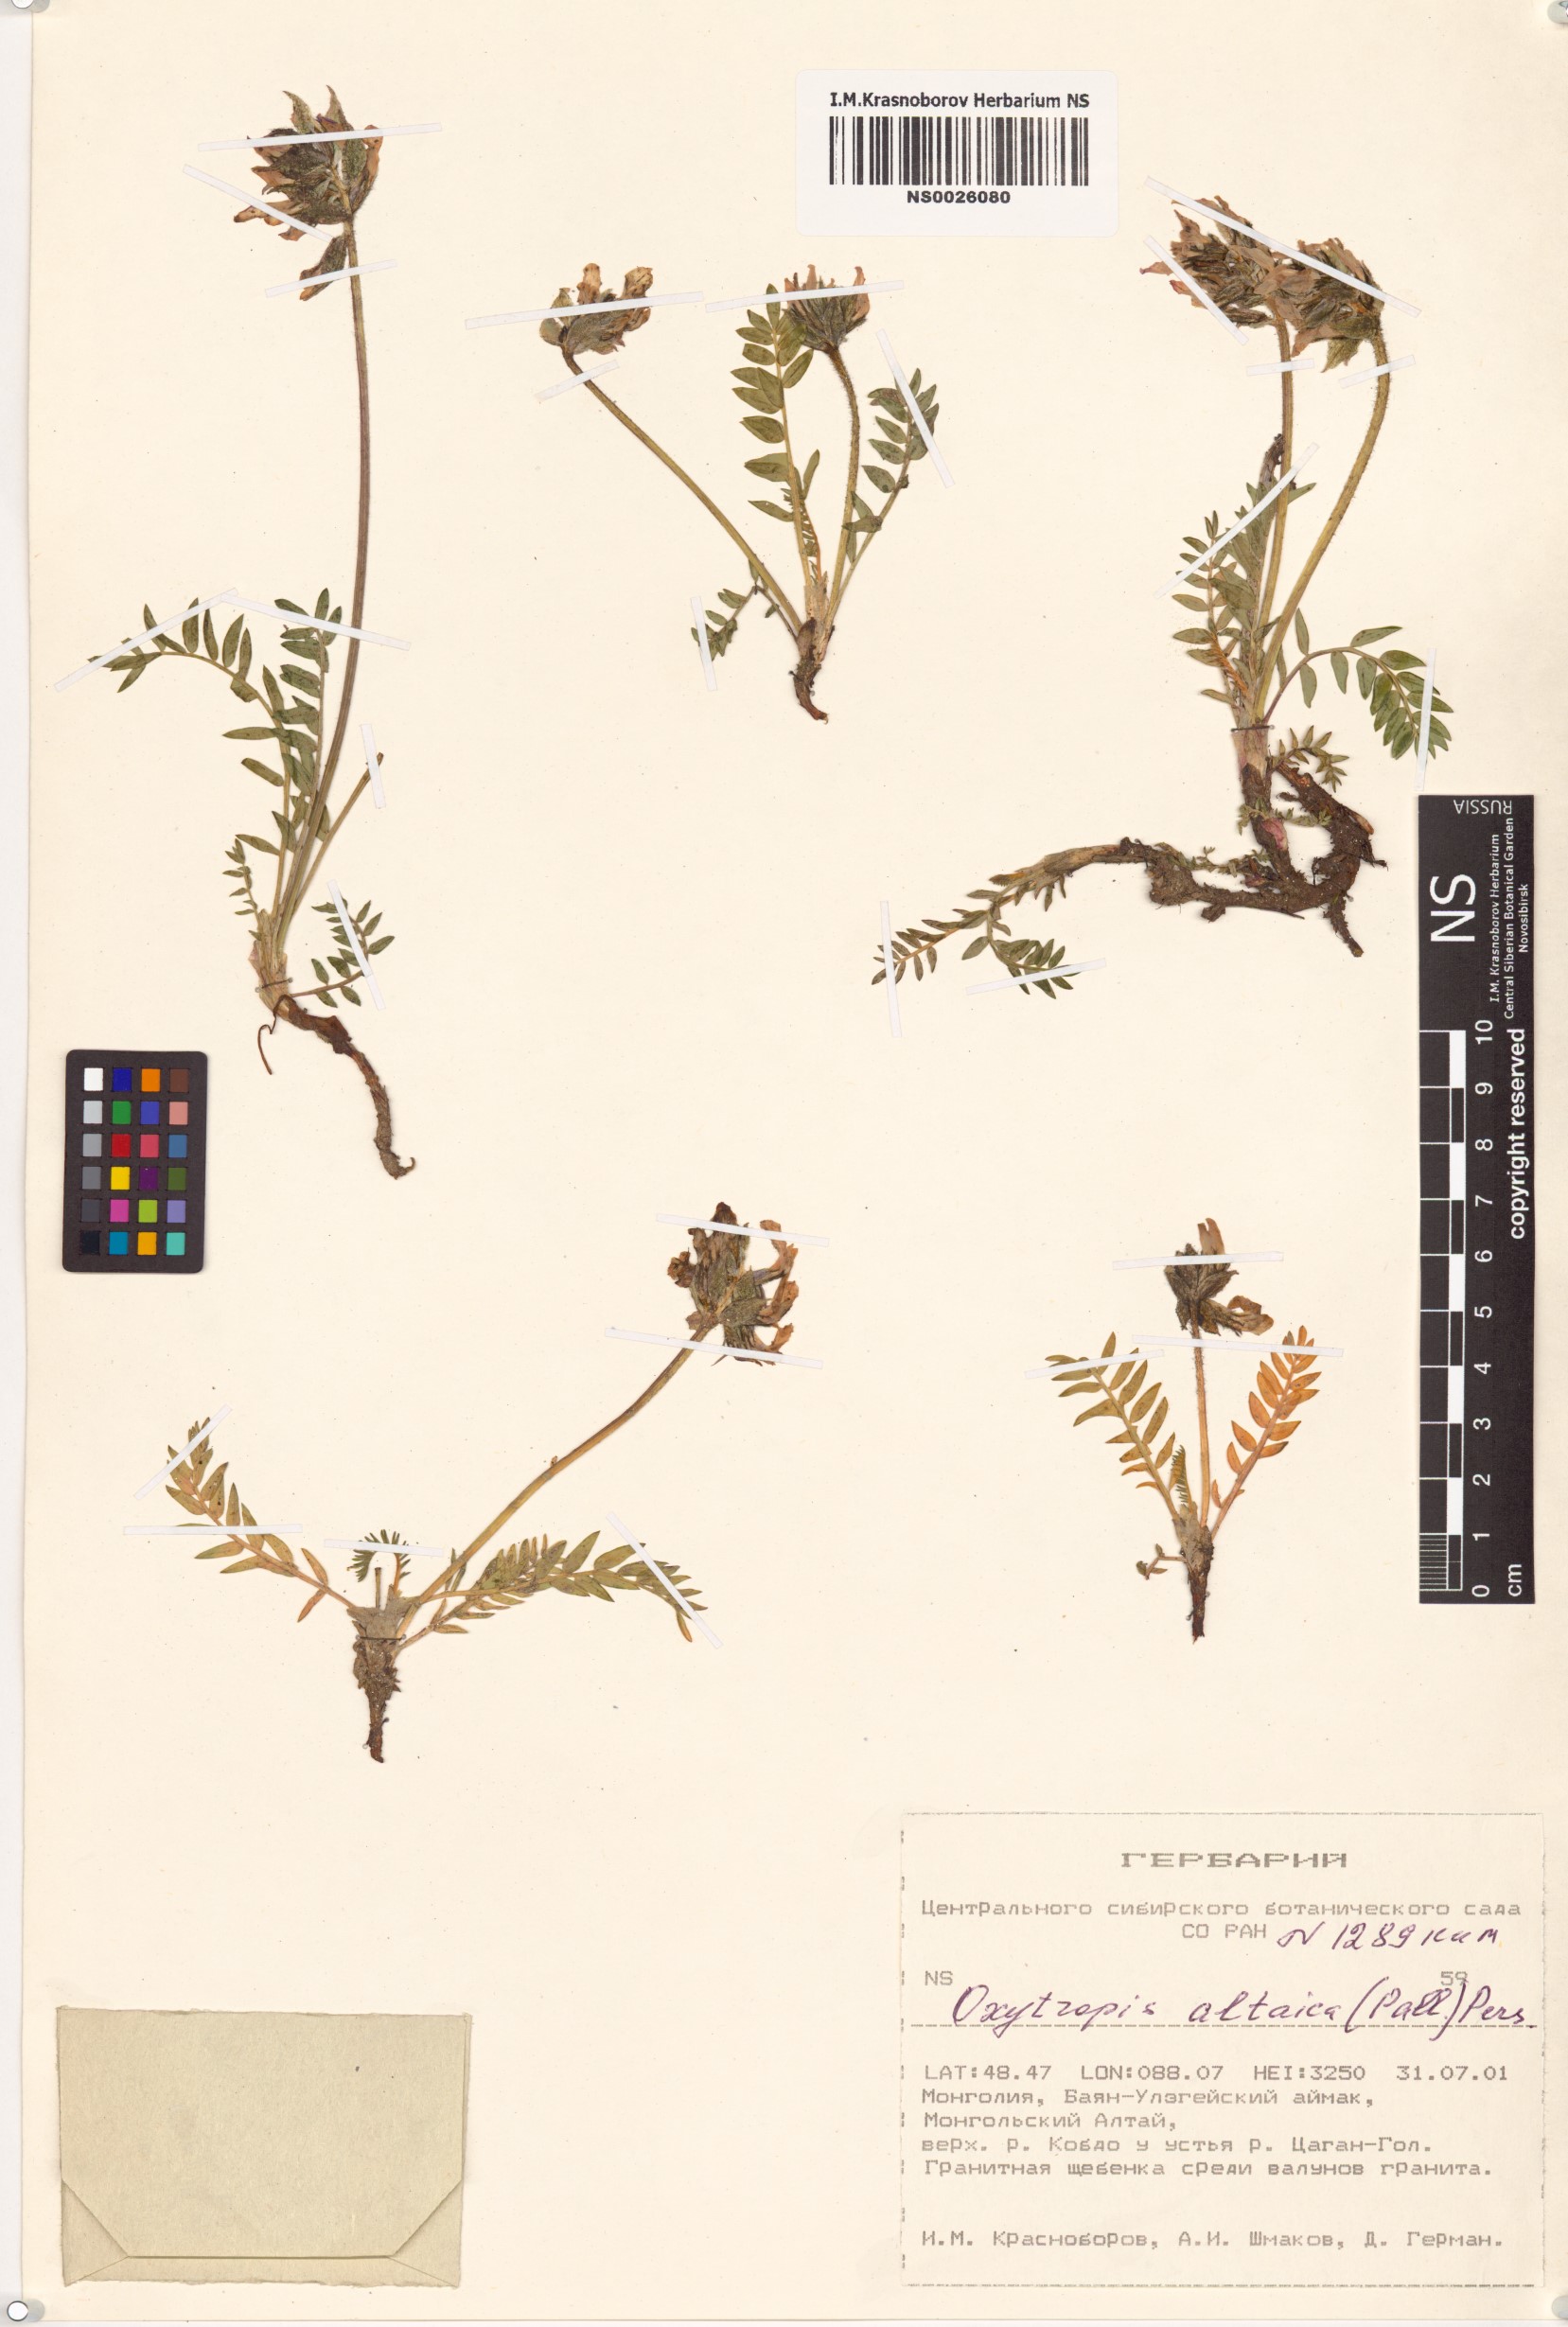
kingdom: Plantae
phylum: Tracheophyta
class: Magnoliopsida
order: Fabales
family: Fabaceae
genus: Oxytropis
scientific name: Oxytropis altaica
